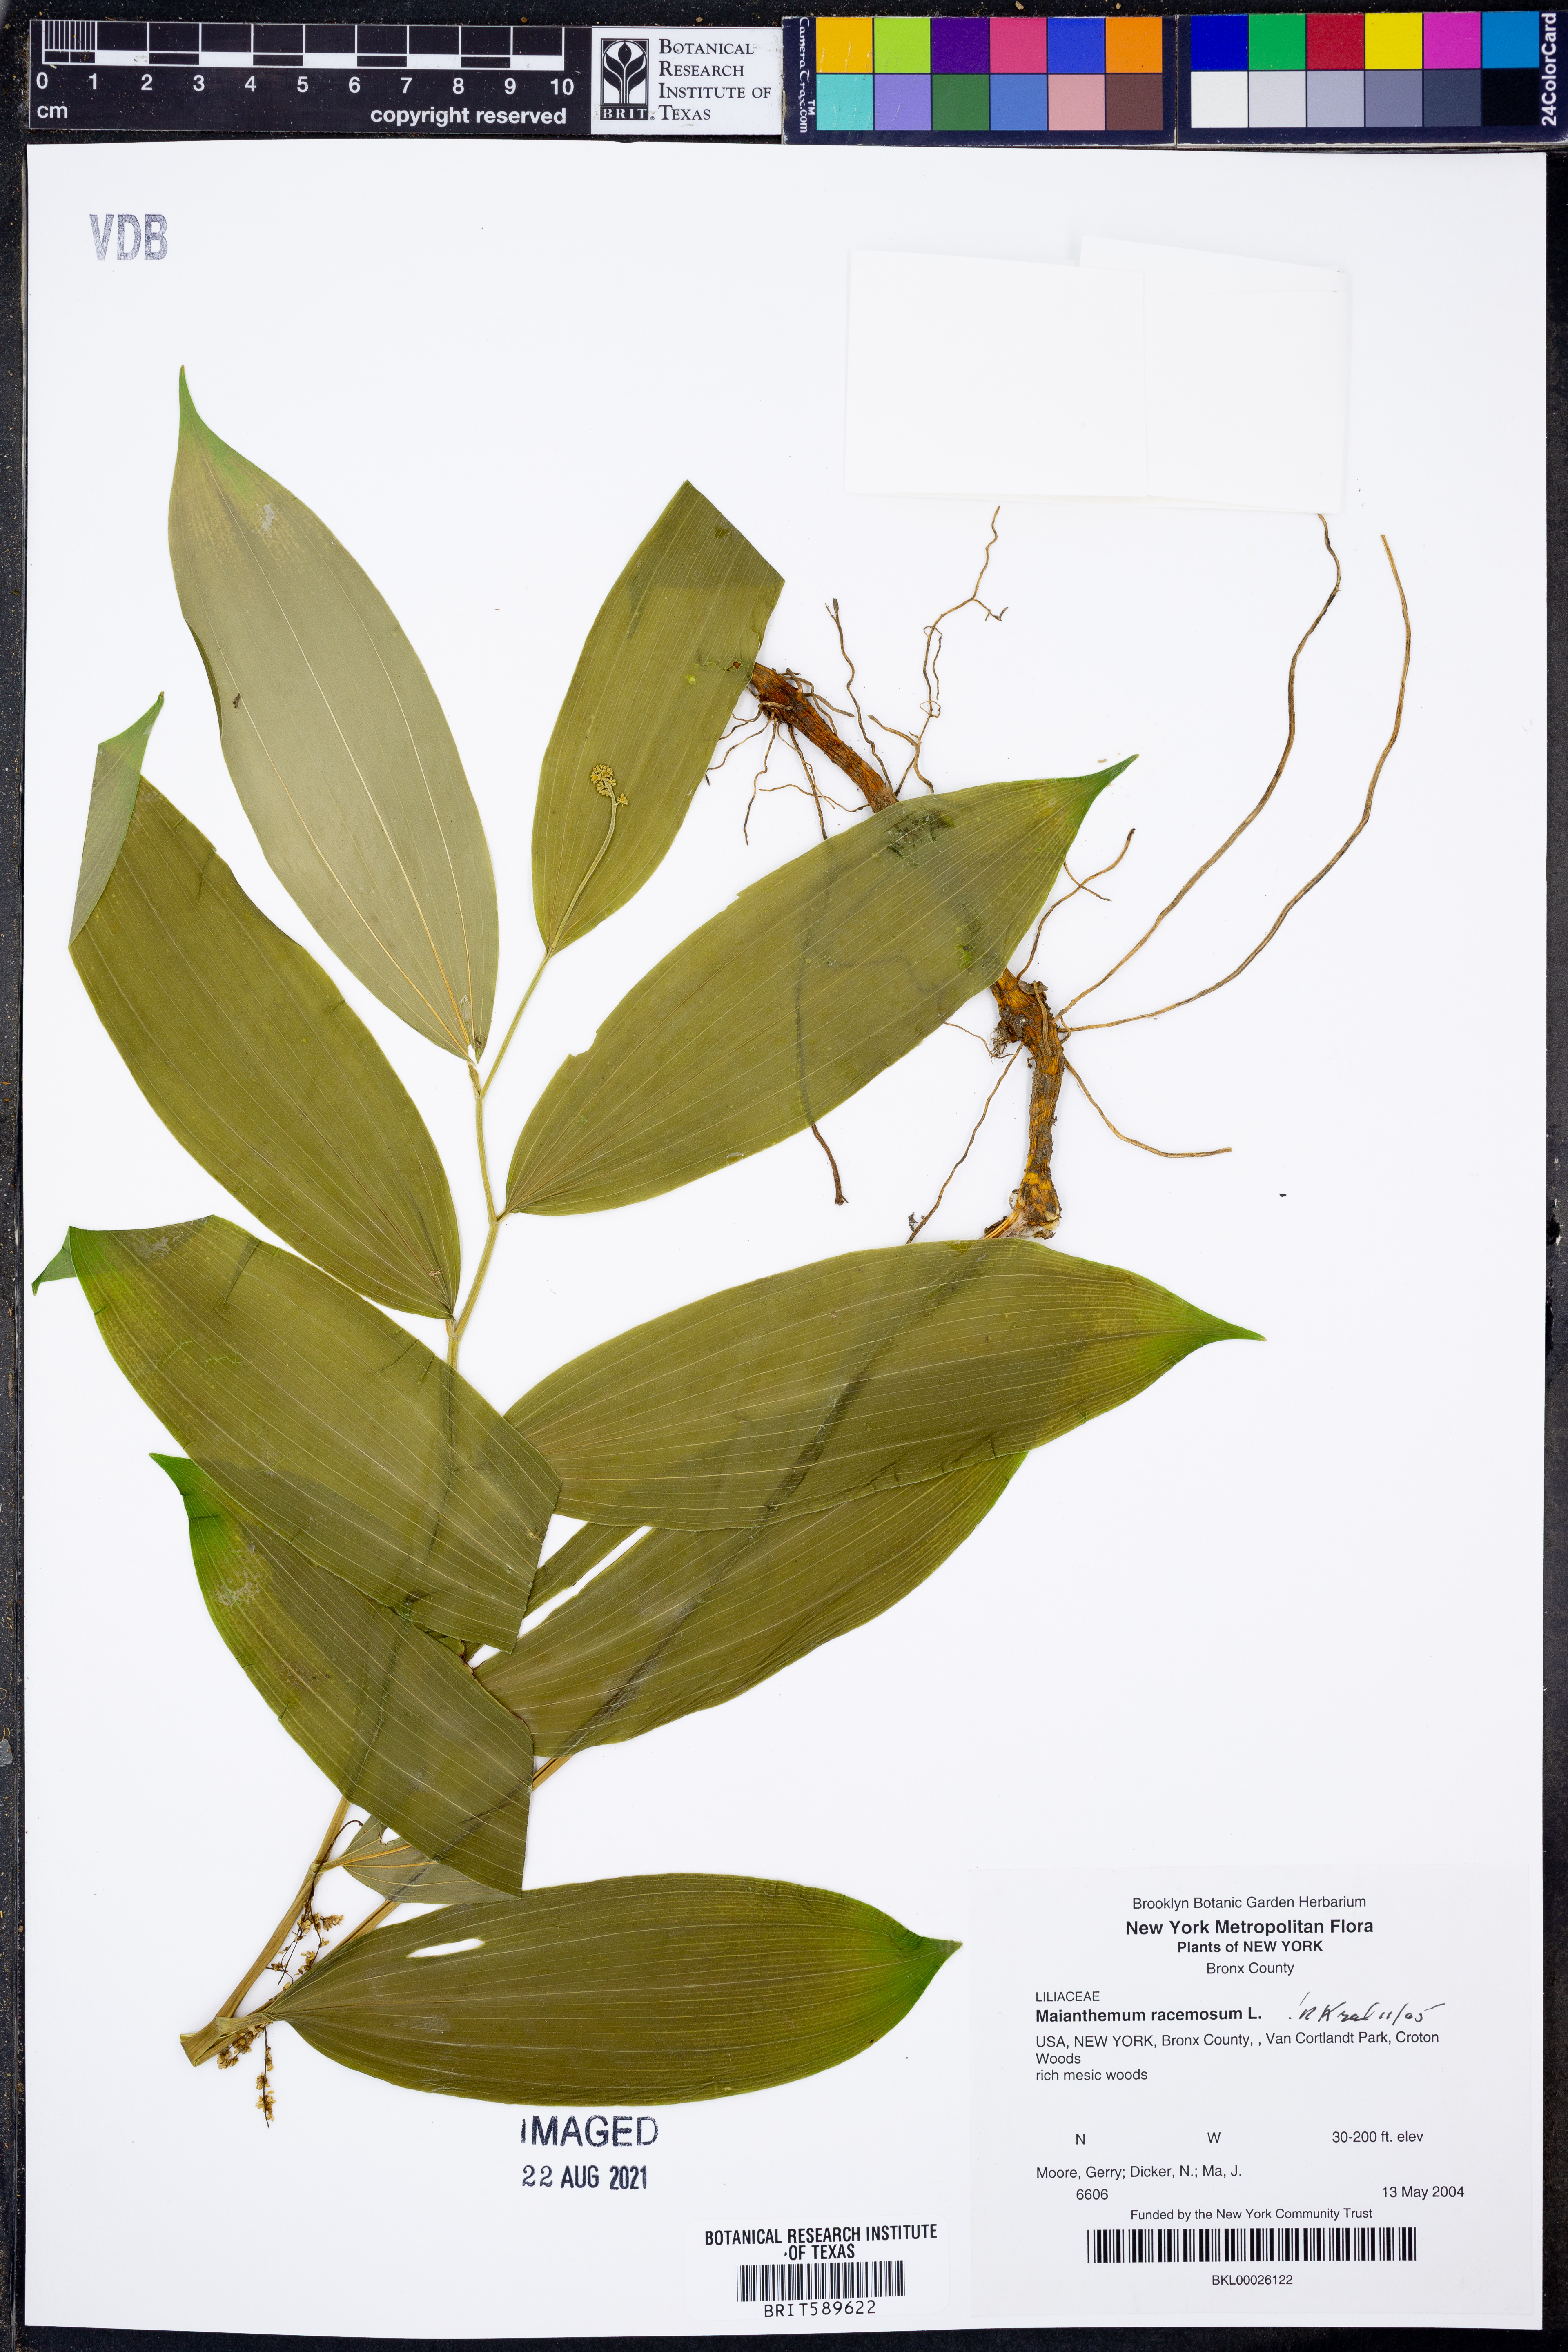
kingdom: Plantae
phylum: Tracheophyta
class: Liliopsida
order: Asparagales
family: Asparagaceae
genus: Maianthemum
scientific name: Maianthemum racemosum
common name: False spikenard
